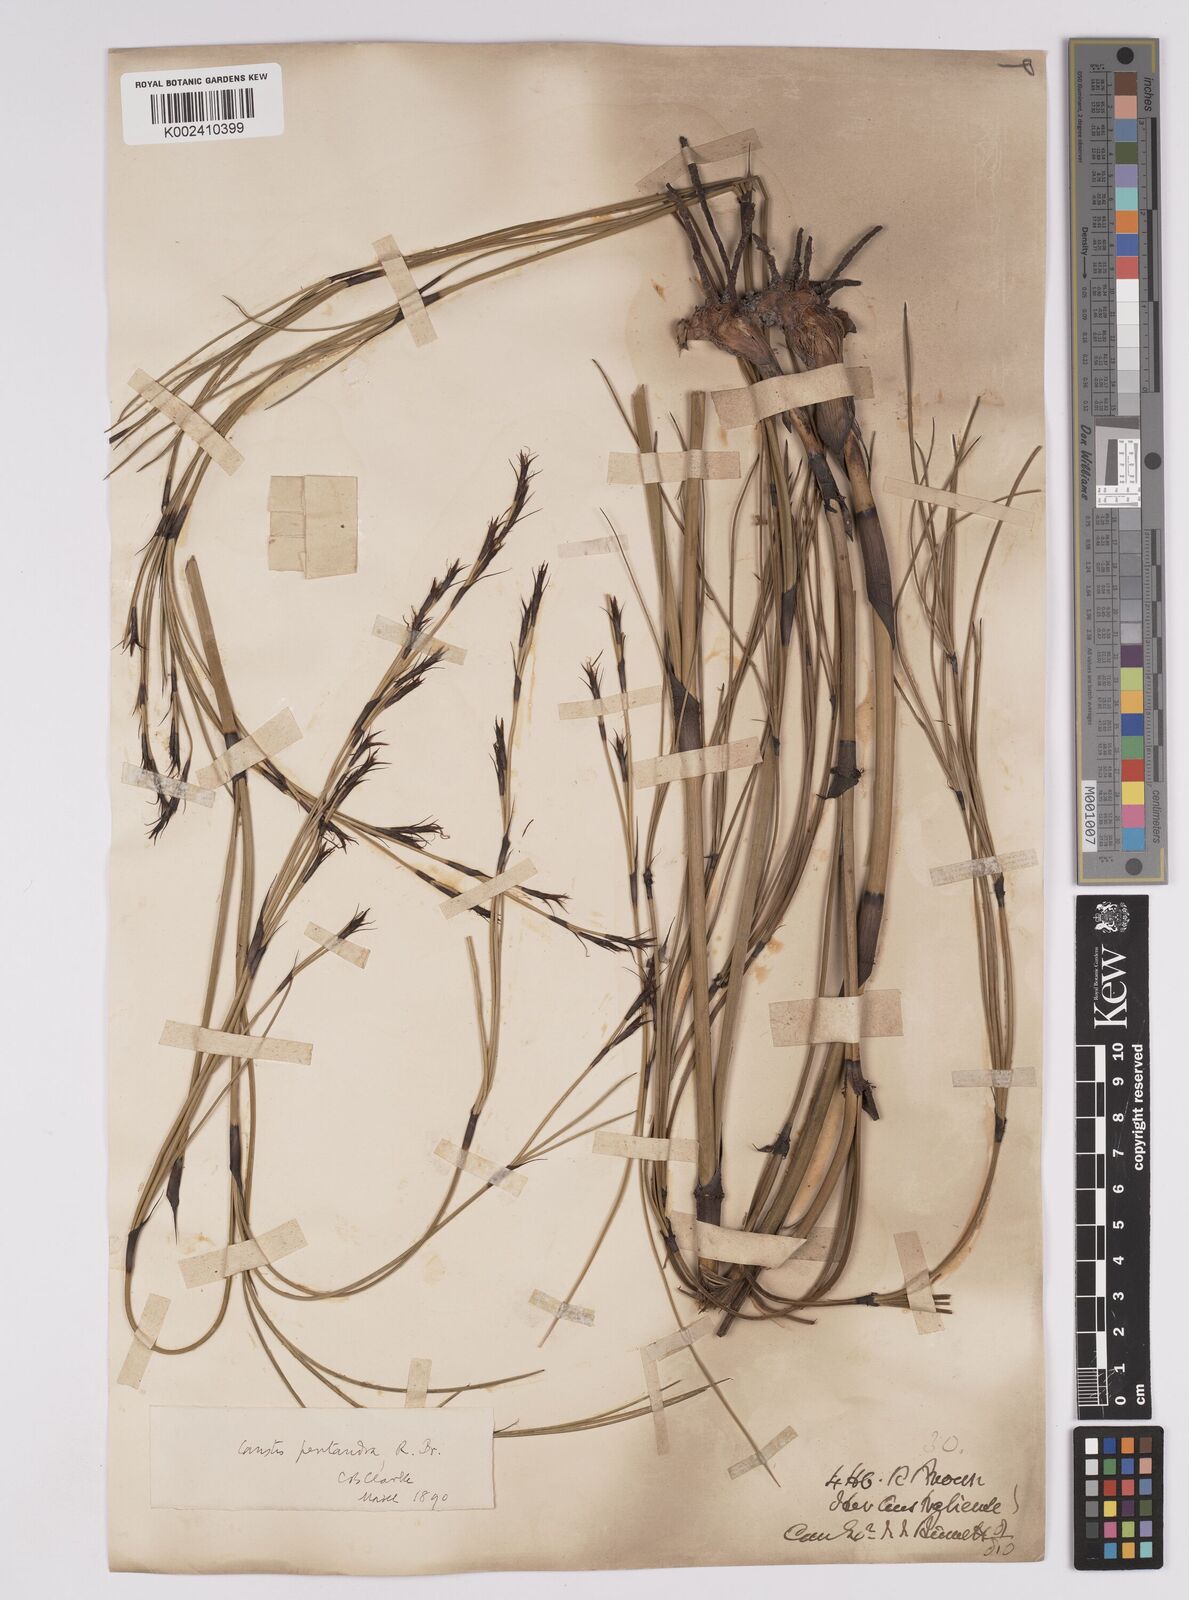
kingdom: Plantae
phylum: Tracheophyta
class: Liliopsida
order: Poales
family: Cyperaceae
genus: Caustis
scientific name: Caustis pentandra
